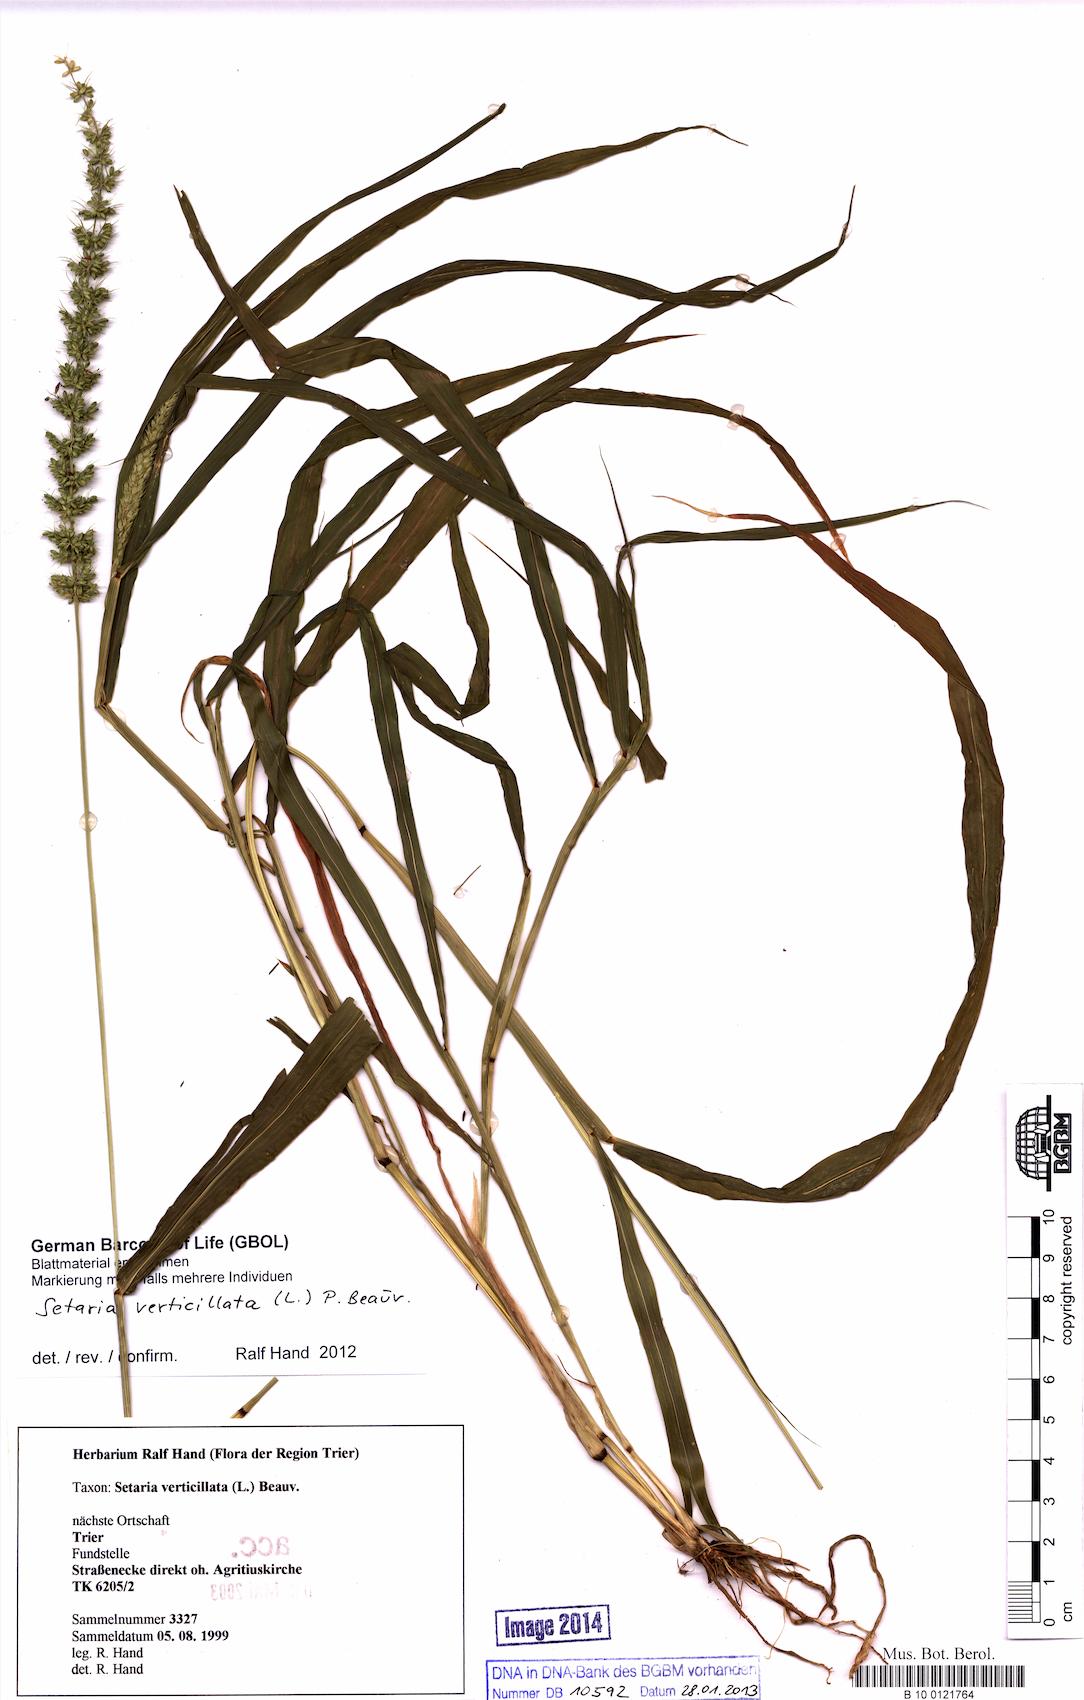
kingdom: Plantae
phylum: Tracheophyta
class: Liliopsida
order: Poales
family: Poaceae
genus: Setaria
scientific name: Setaria verticillata
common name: Hooked bristlegrass
